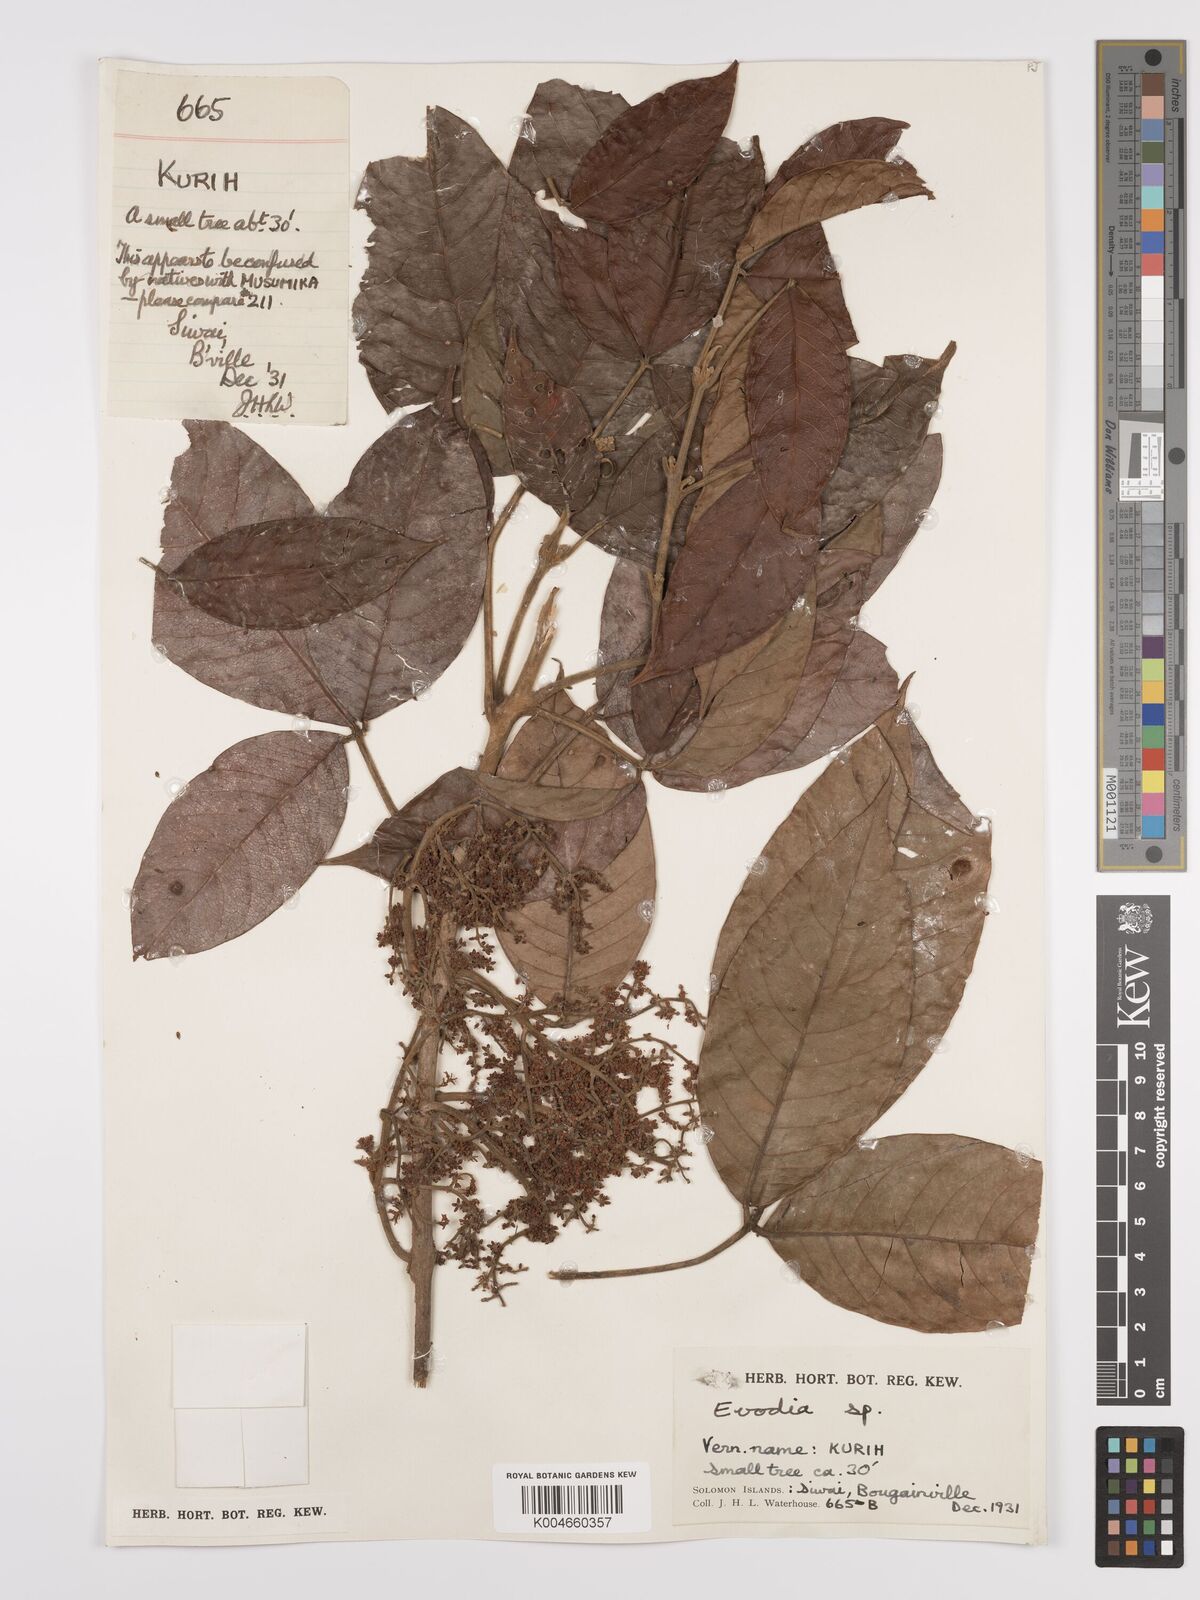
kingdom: Plantae
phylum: Tracheophyta
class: Magnoliopsida
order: Sapindales
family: Rutaceae
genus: Euodia
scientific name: Euodia
